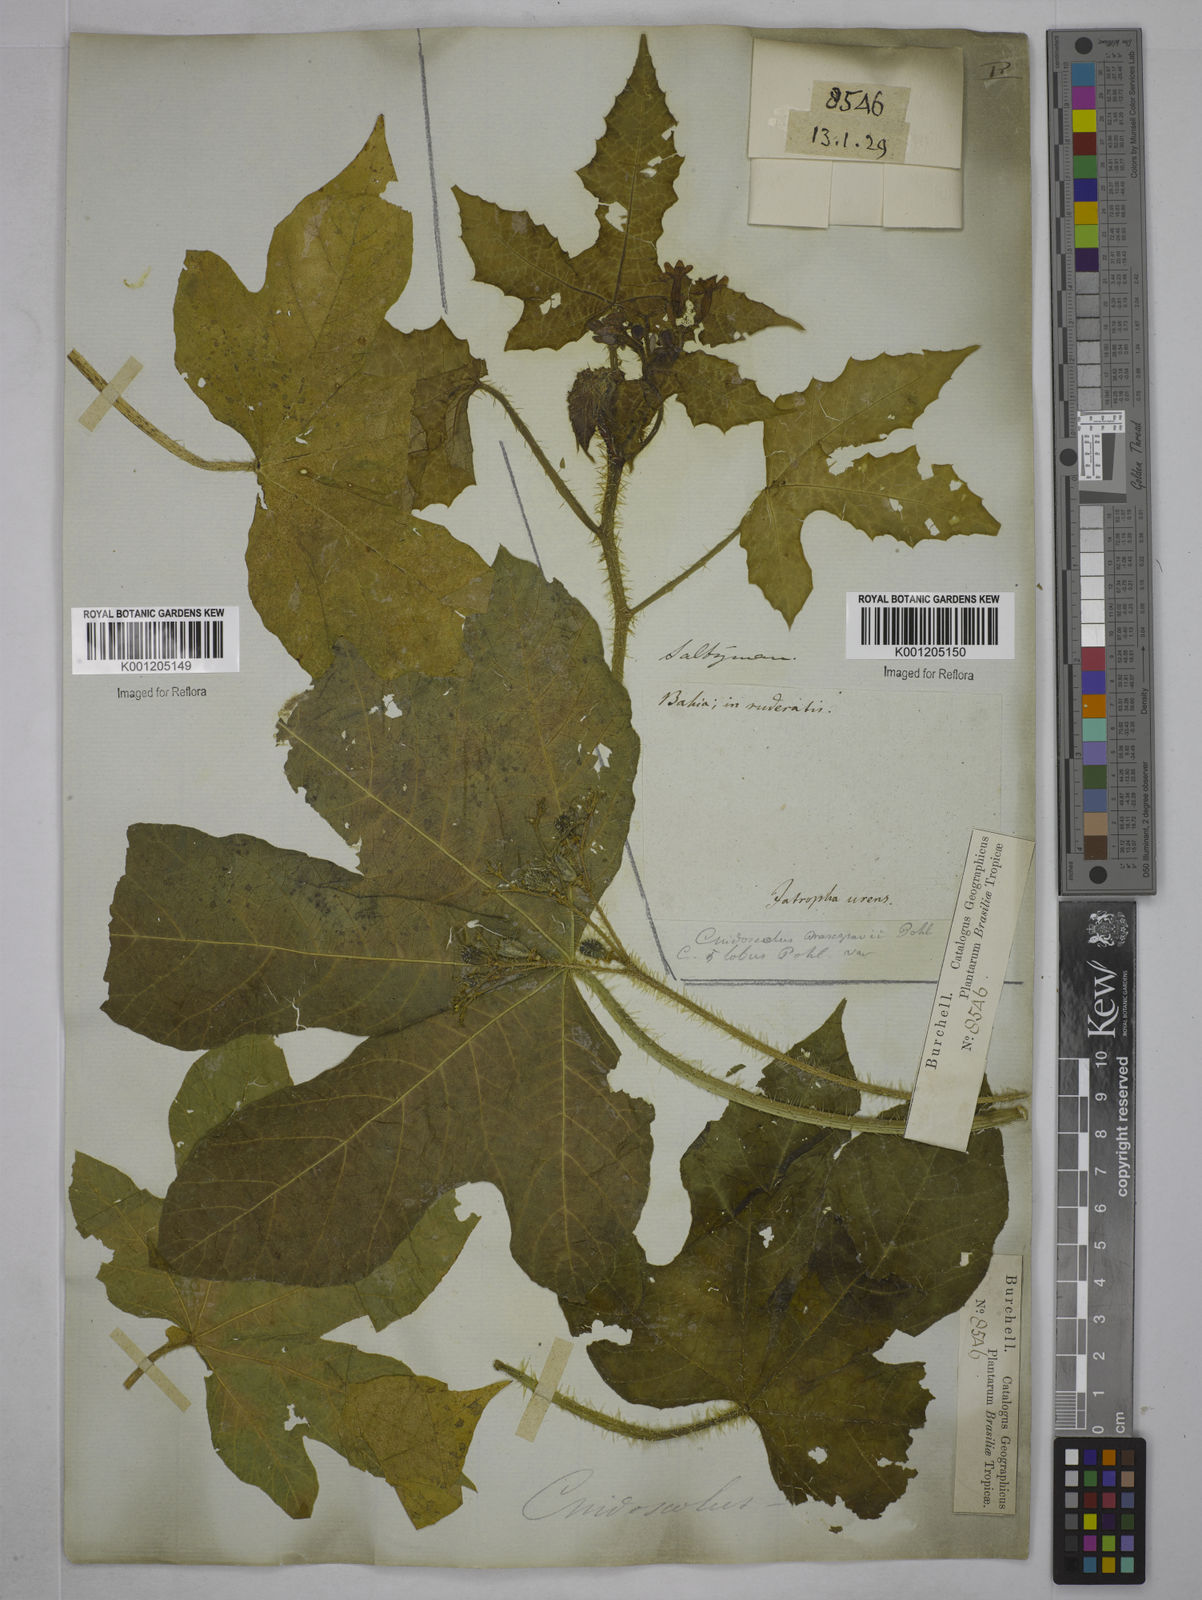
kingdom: Plantae
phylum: Tracheophyta
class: Magnoliopsida
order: Malpighiales
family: Euphorbiaceae
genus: Cnidoscolus
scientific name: Cnidoscolus urens
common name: Bull-nettle
